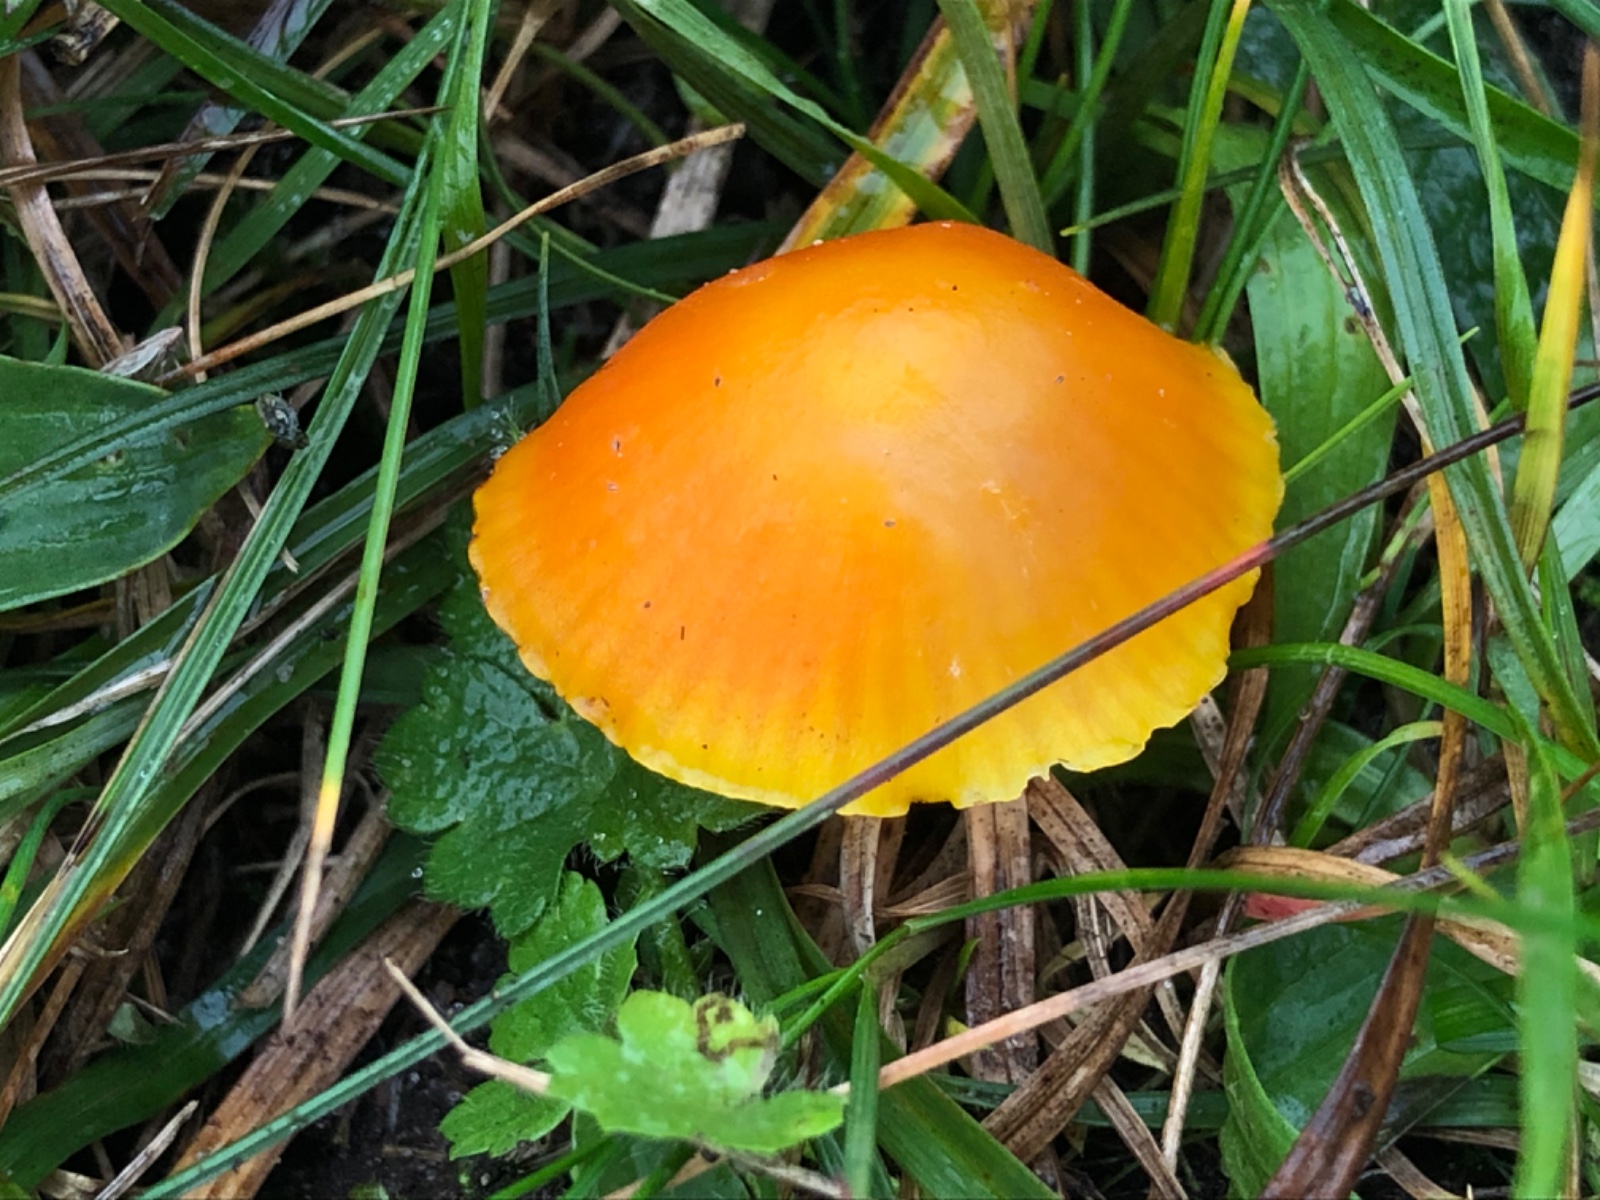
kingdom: Fungi
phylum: Basidiomycota
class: Agaricomycetes
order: Agaricales
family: Hygrophoraceae
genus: Hygrocybe
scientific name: Hygrocybe reidii
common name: honning-vokshat
